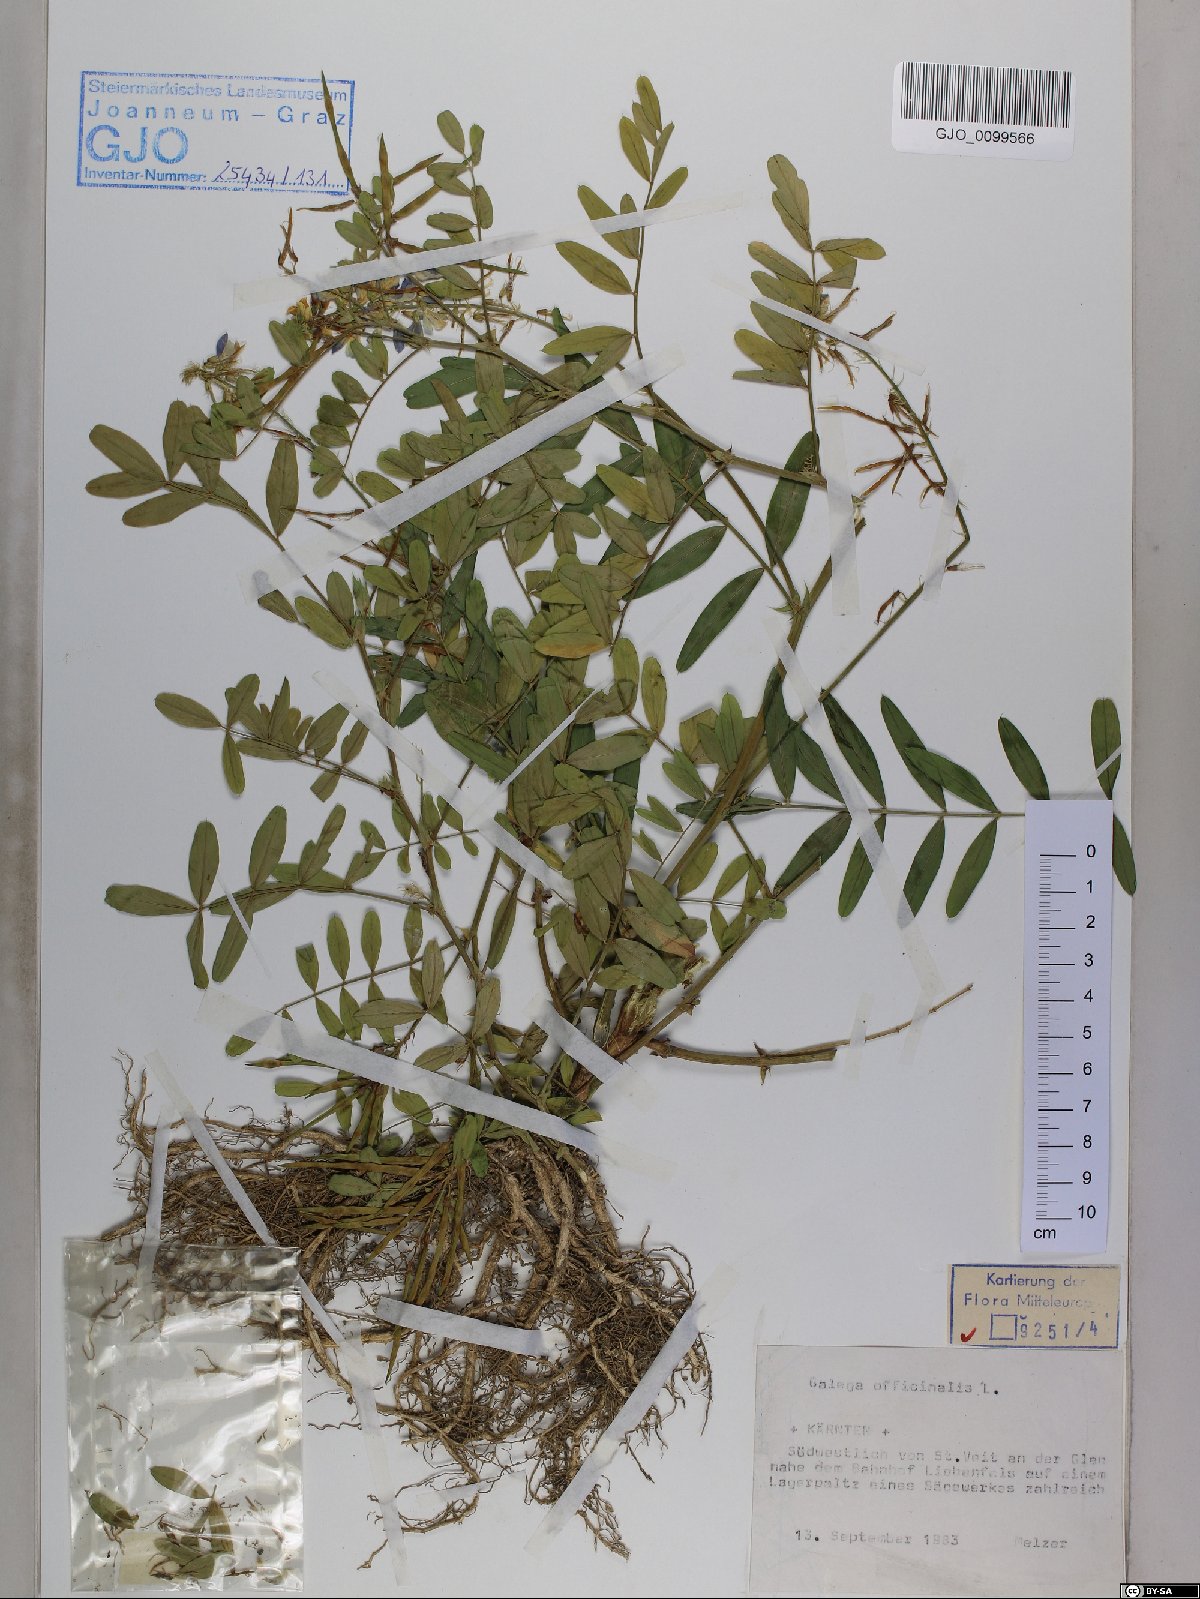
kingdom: Plantae
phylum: Tracheophyta
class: Magnoliopsida
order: Fabales
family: Fabaceae
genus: Galega
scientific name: Galega officinalis
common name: Goat's-rue
